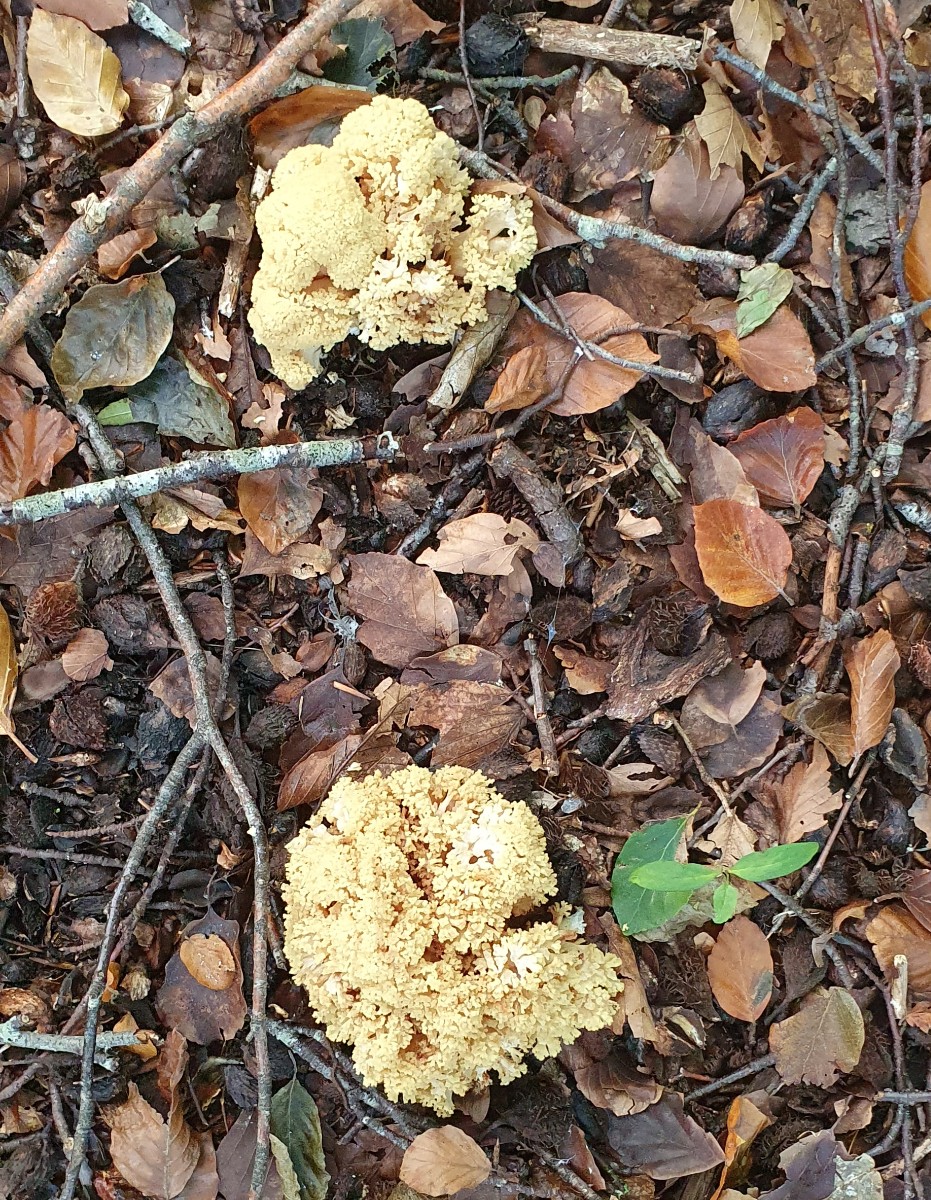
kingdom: Fungi
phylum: Basidiomycota
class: Agaricomycetes
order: Gomphales
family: Gomphaceae
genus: Ramaria
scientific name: Ramaria sanguinea
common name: blodplettet koralsvamp
